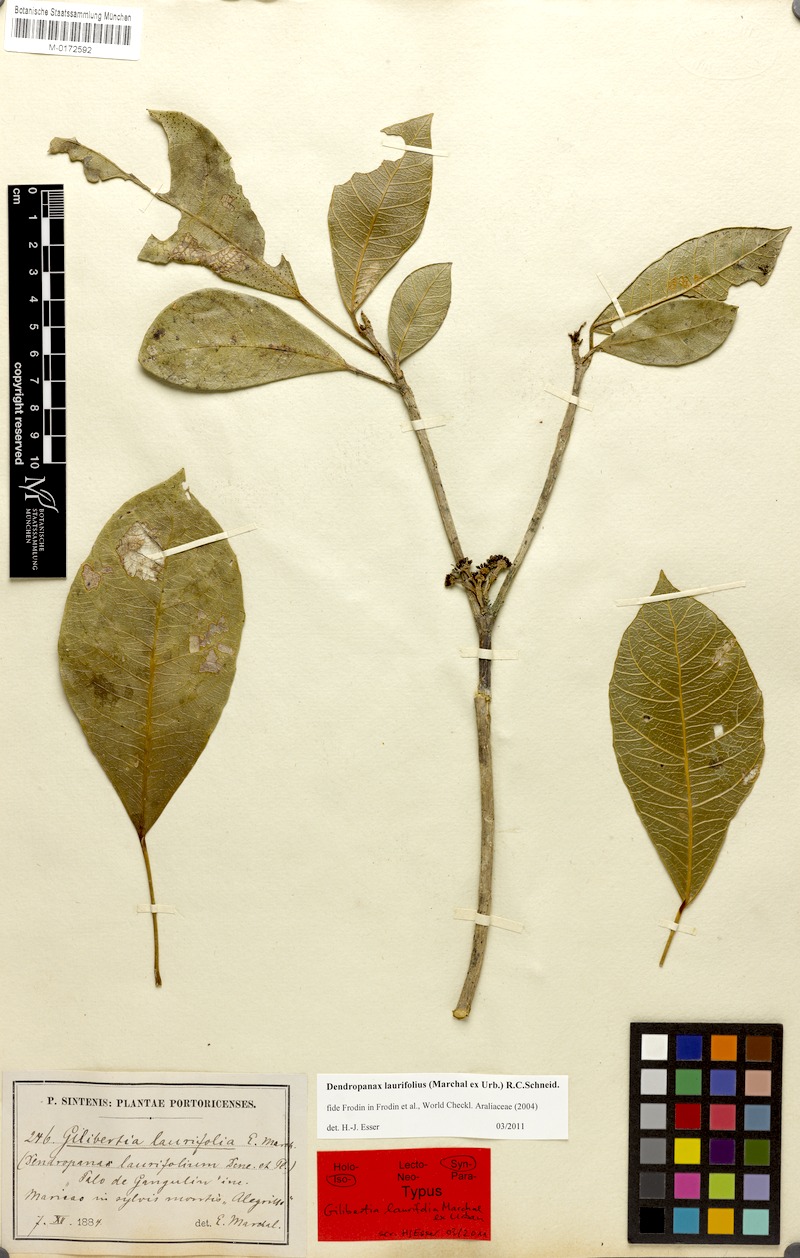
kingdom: Plantae
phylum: Tracheophyta
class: Magnoliopsida
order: Apiales
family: Araliaceae
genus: Dendropanax
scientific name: Dendropanax laurifolius
